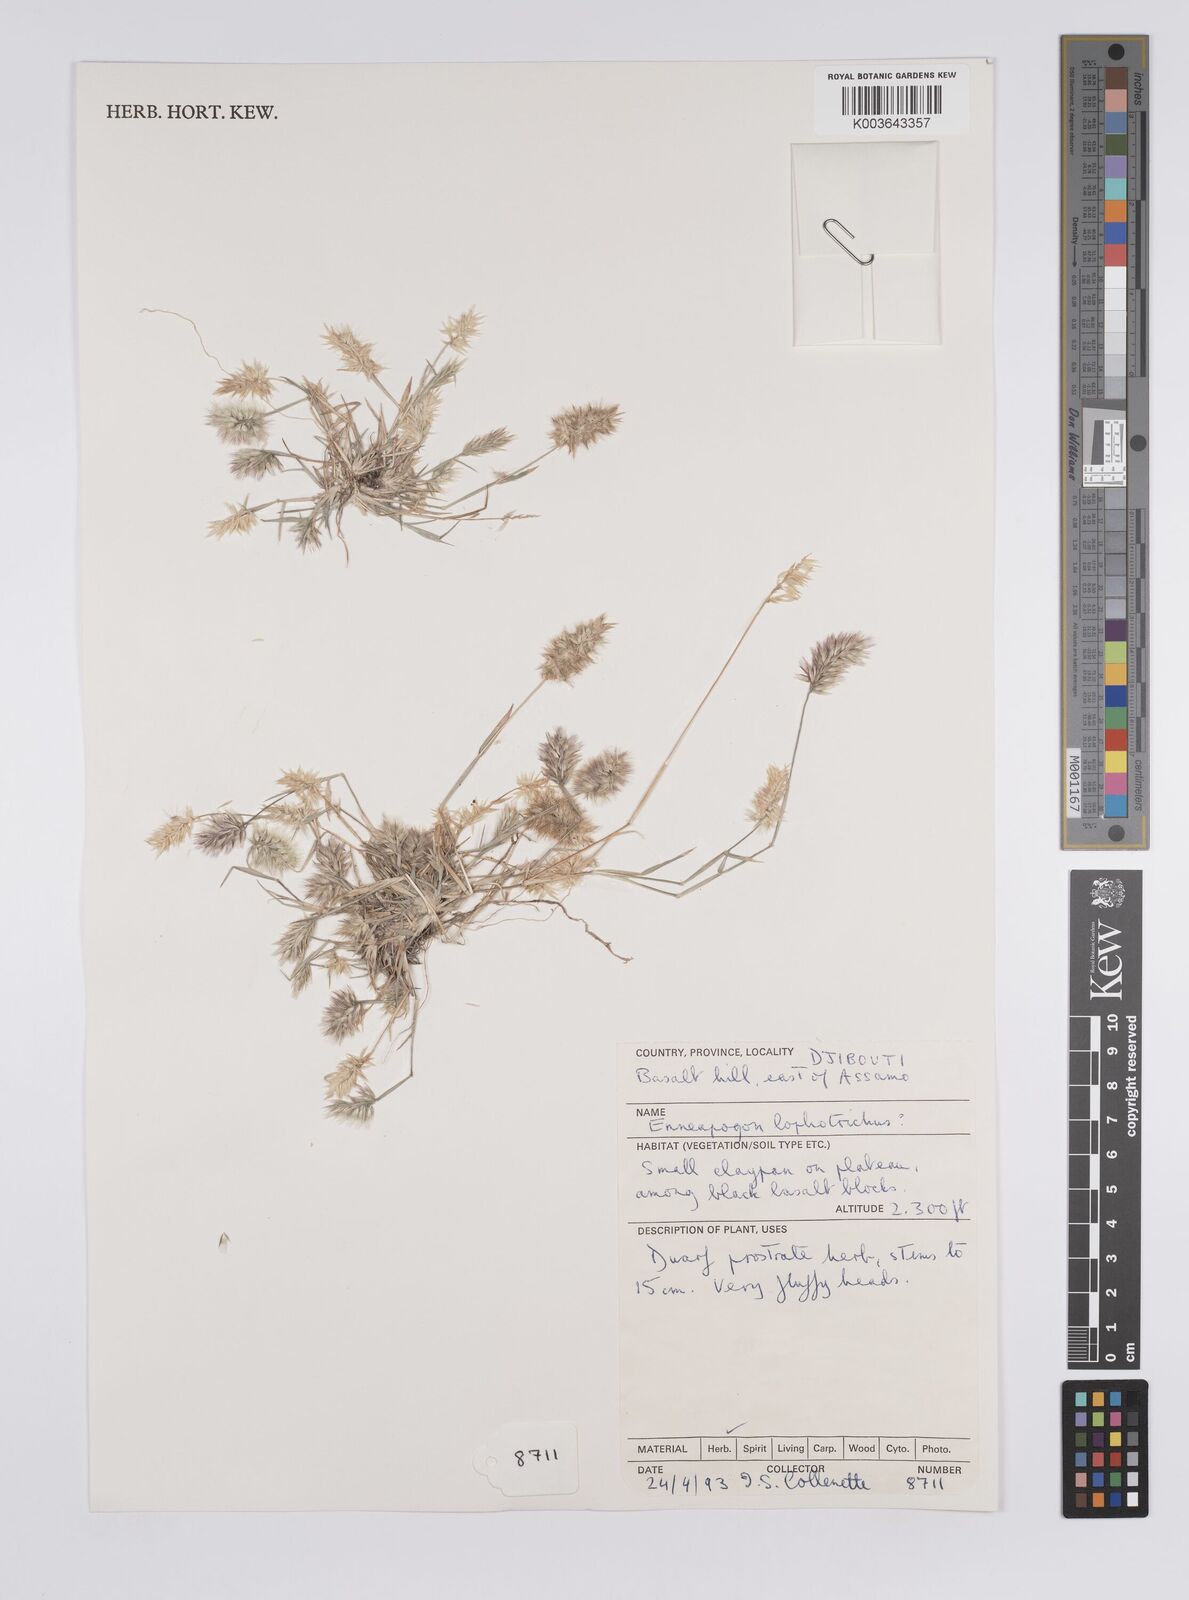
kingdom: Plantae
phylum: Tracheophyta
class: Liliopsida
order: Poales
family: Poaceae
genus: Enneapogon
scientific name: Enneapogon lophotrichus
